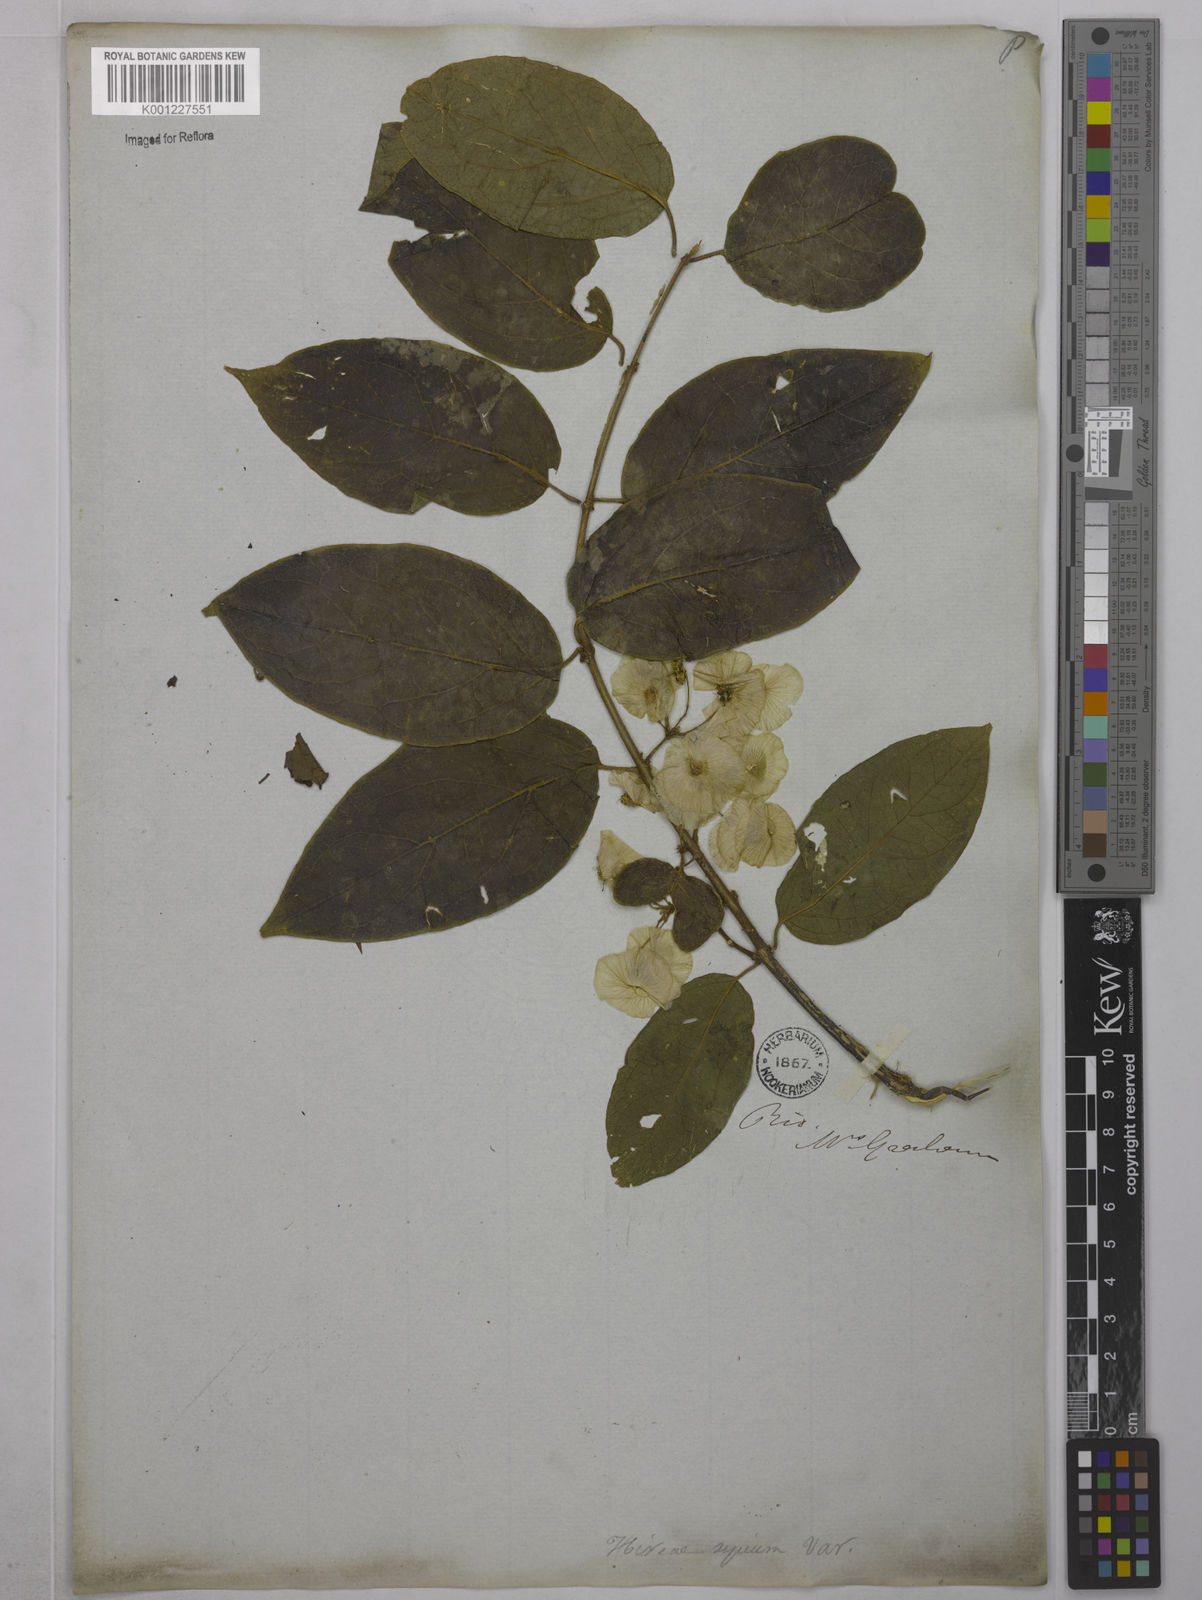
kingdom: Plantae
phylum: Tracheophyta
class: Magnoliopsida
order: Malpighiales
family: Malpighiaceae
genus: Mascagnia
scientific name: Mascagnia sepium
